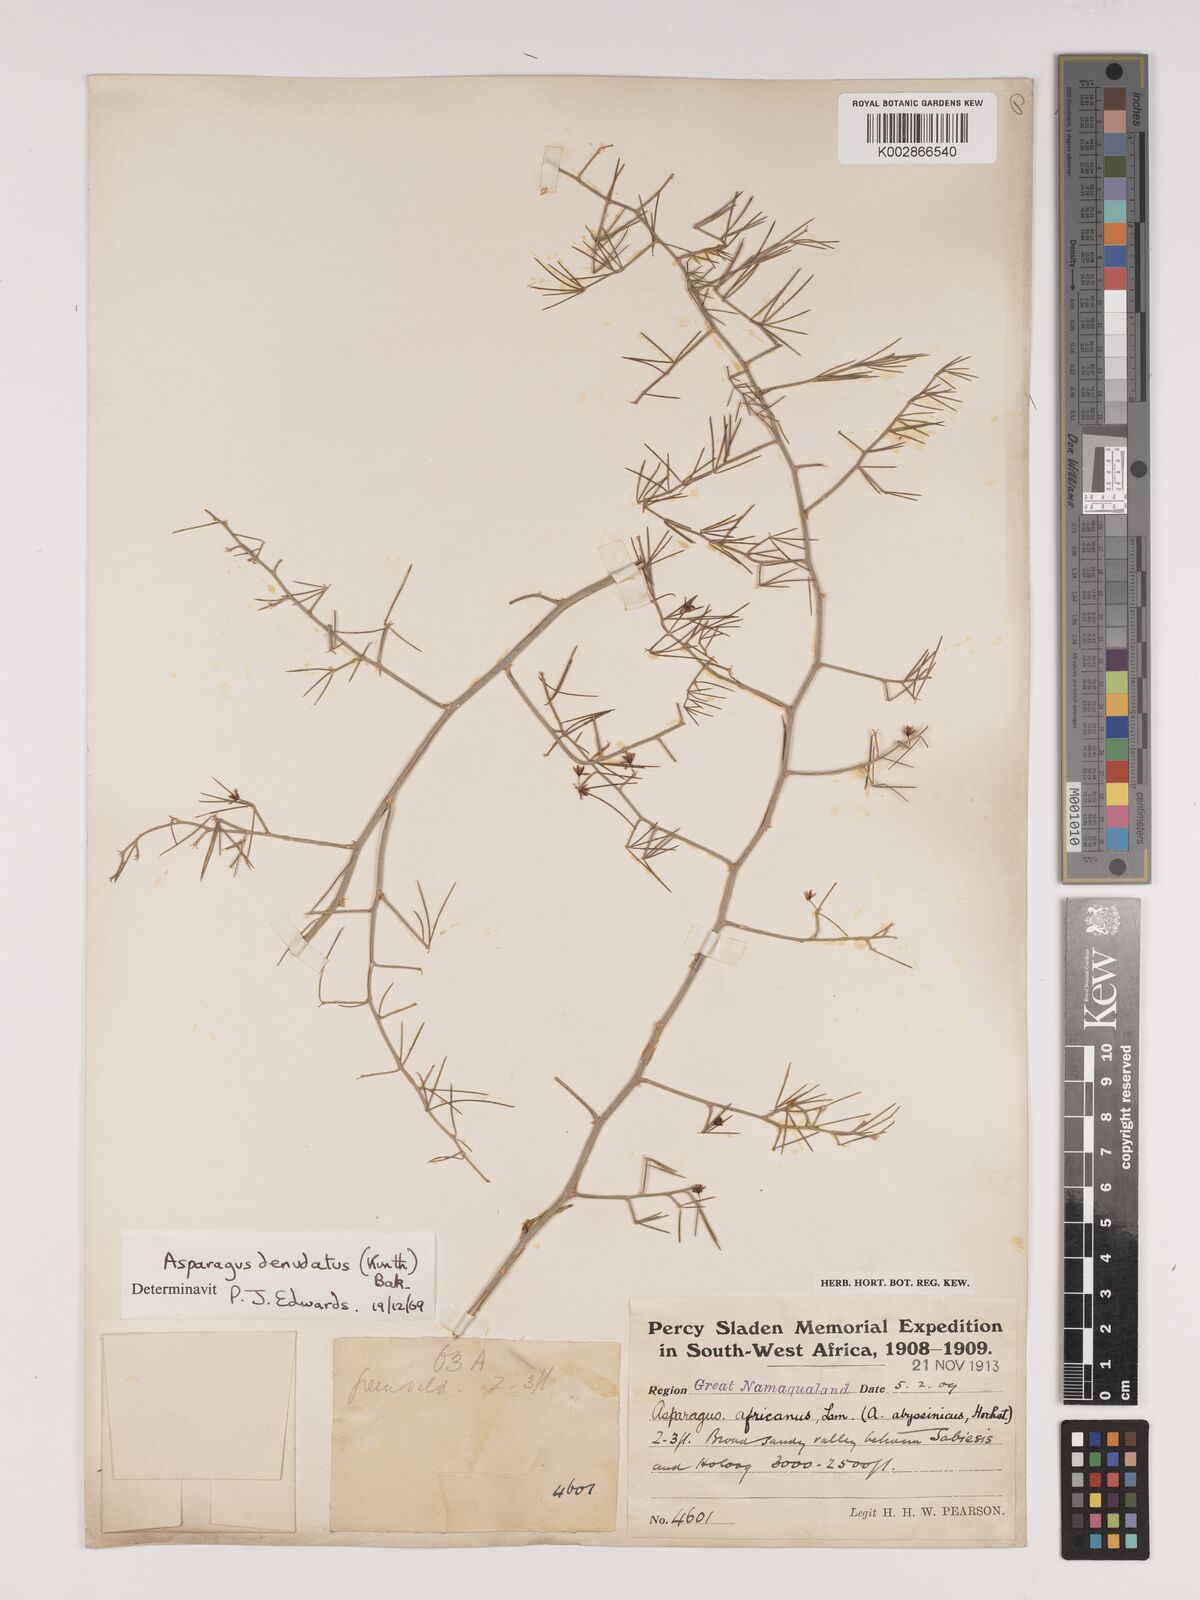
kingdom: Plantae
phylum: Tracheophyta
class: Liliopsida
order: Asparagales
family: Asparagaceae
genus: Asparagus
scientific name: Asparagus denudatus
